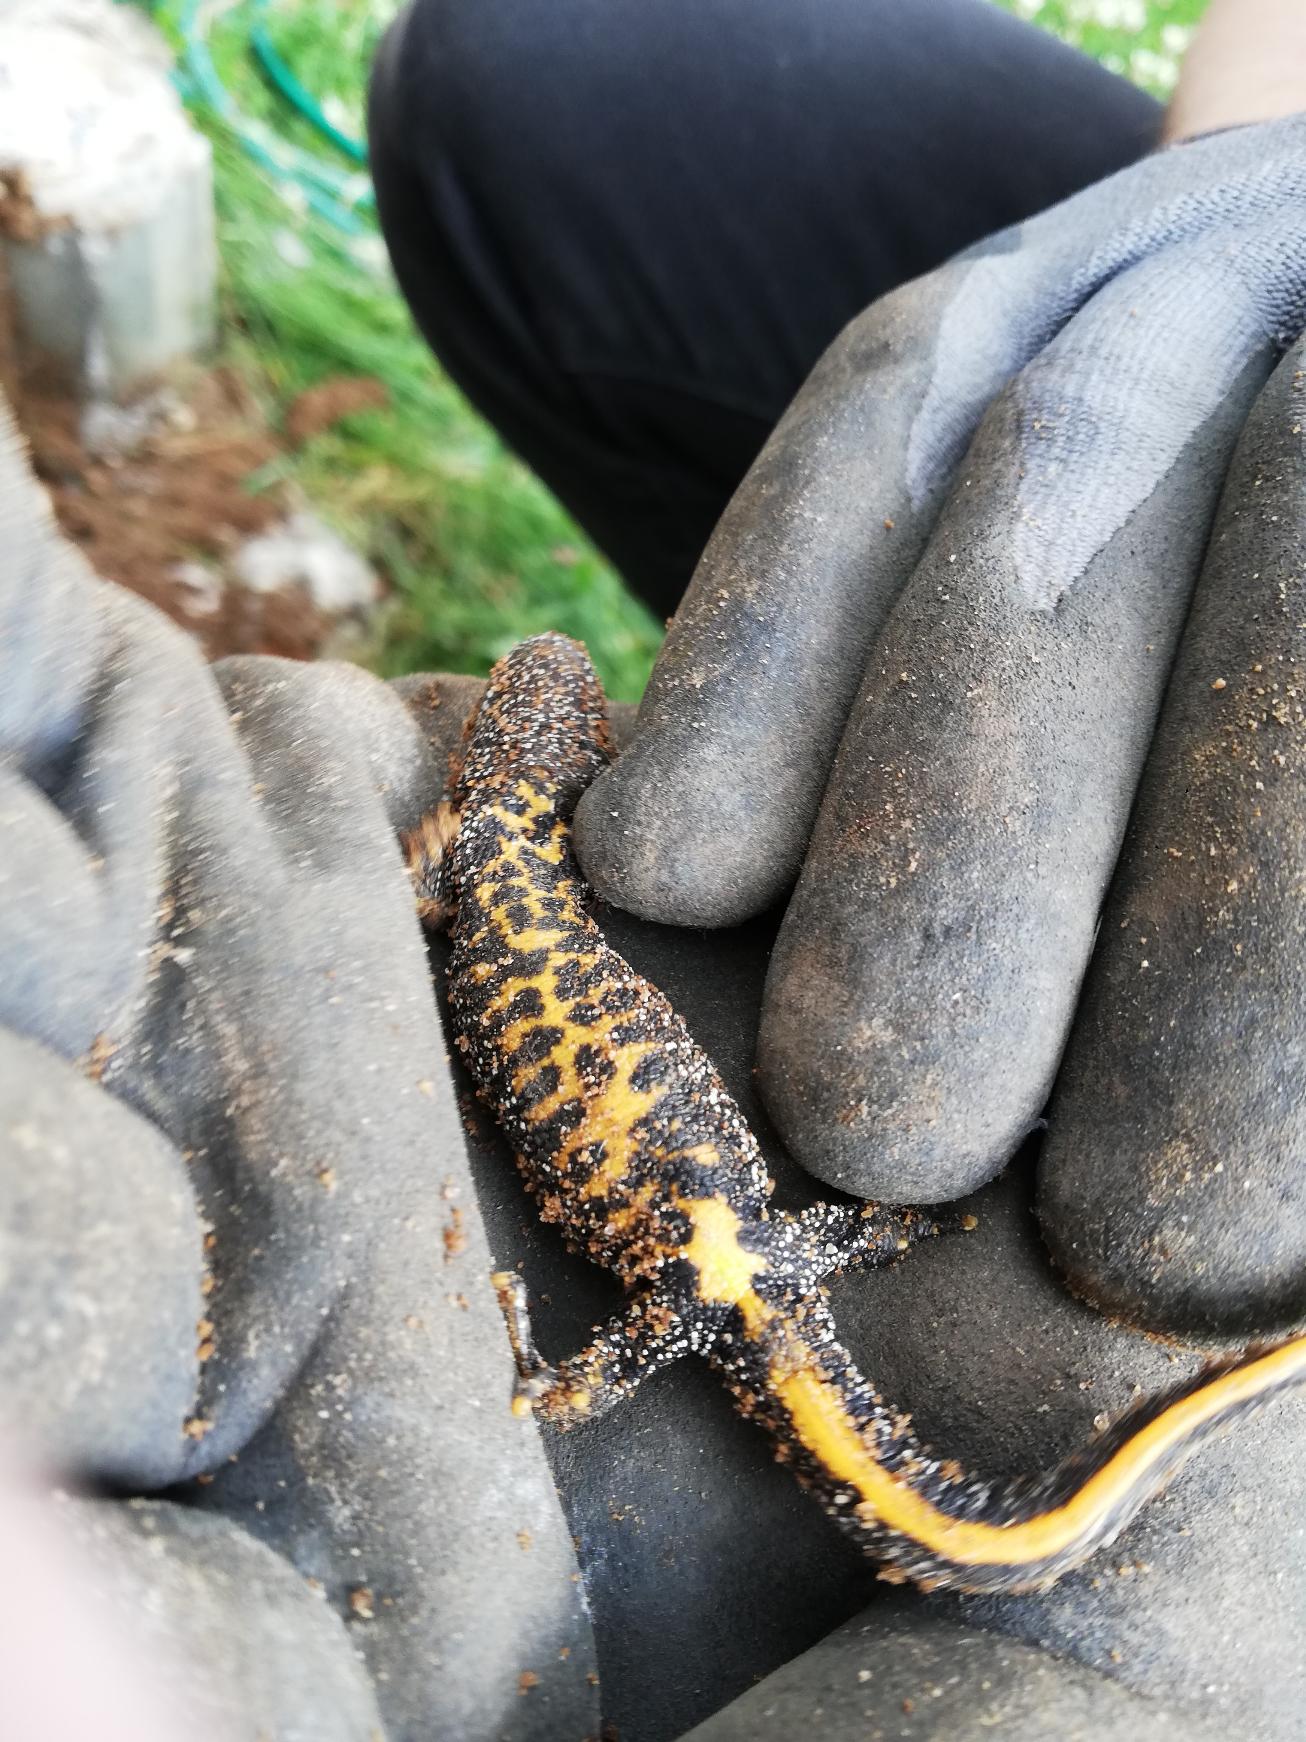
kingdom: Animalia
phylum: Chordata
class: Amphibia
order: Caudata
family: Salamandridae
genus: Triturus
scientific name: Triturus cristatus
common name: Stor vandsalamander
